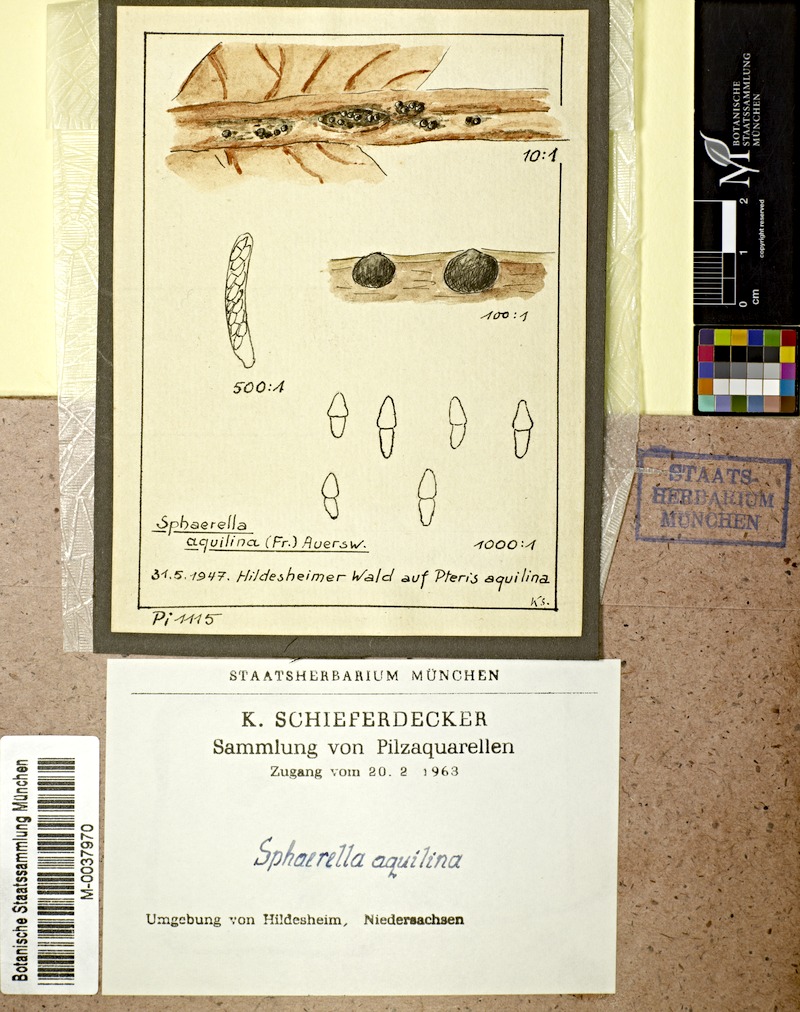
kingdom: Fungi
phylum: Ascomycota
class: Dothideomycetes
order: Mycosphaerellales
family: Mycosphaerellaceae
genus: Mycosphaerella
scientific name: Mycosphaerella aquilina
